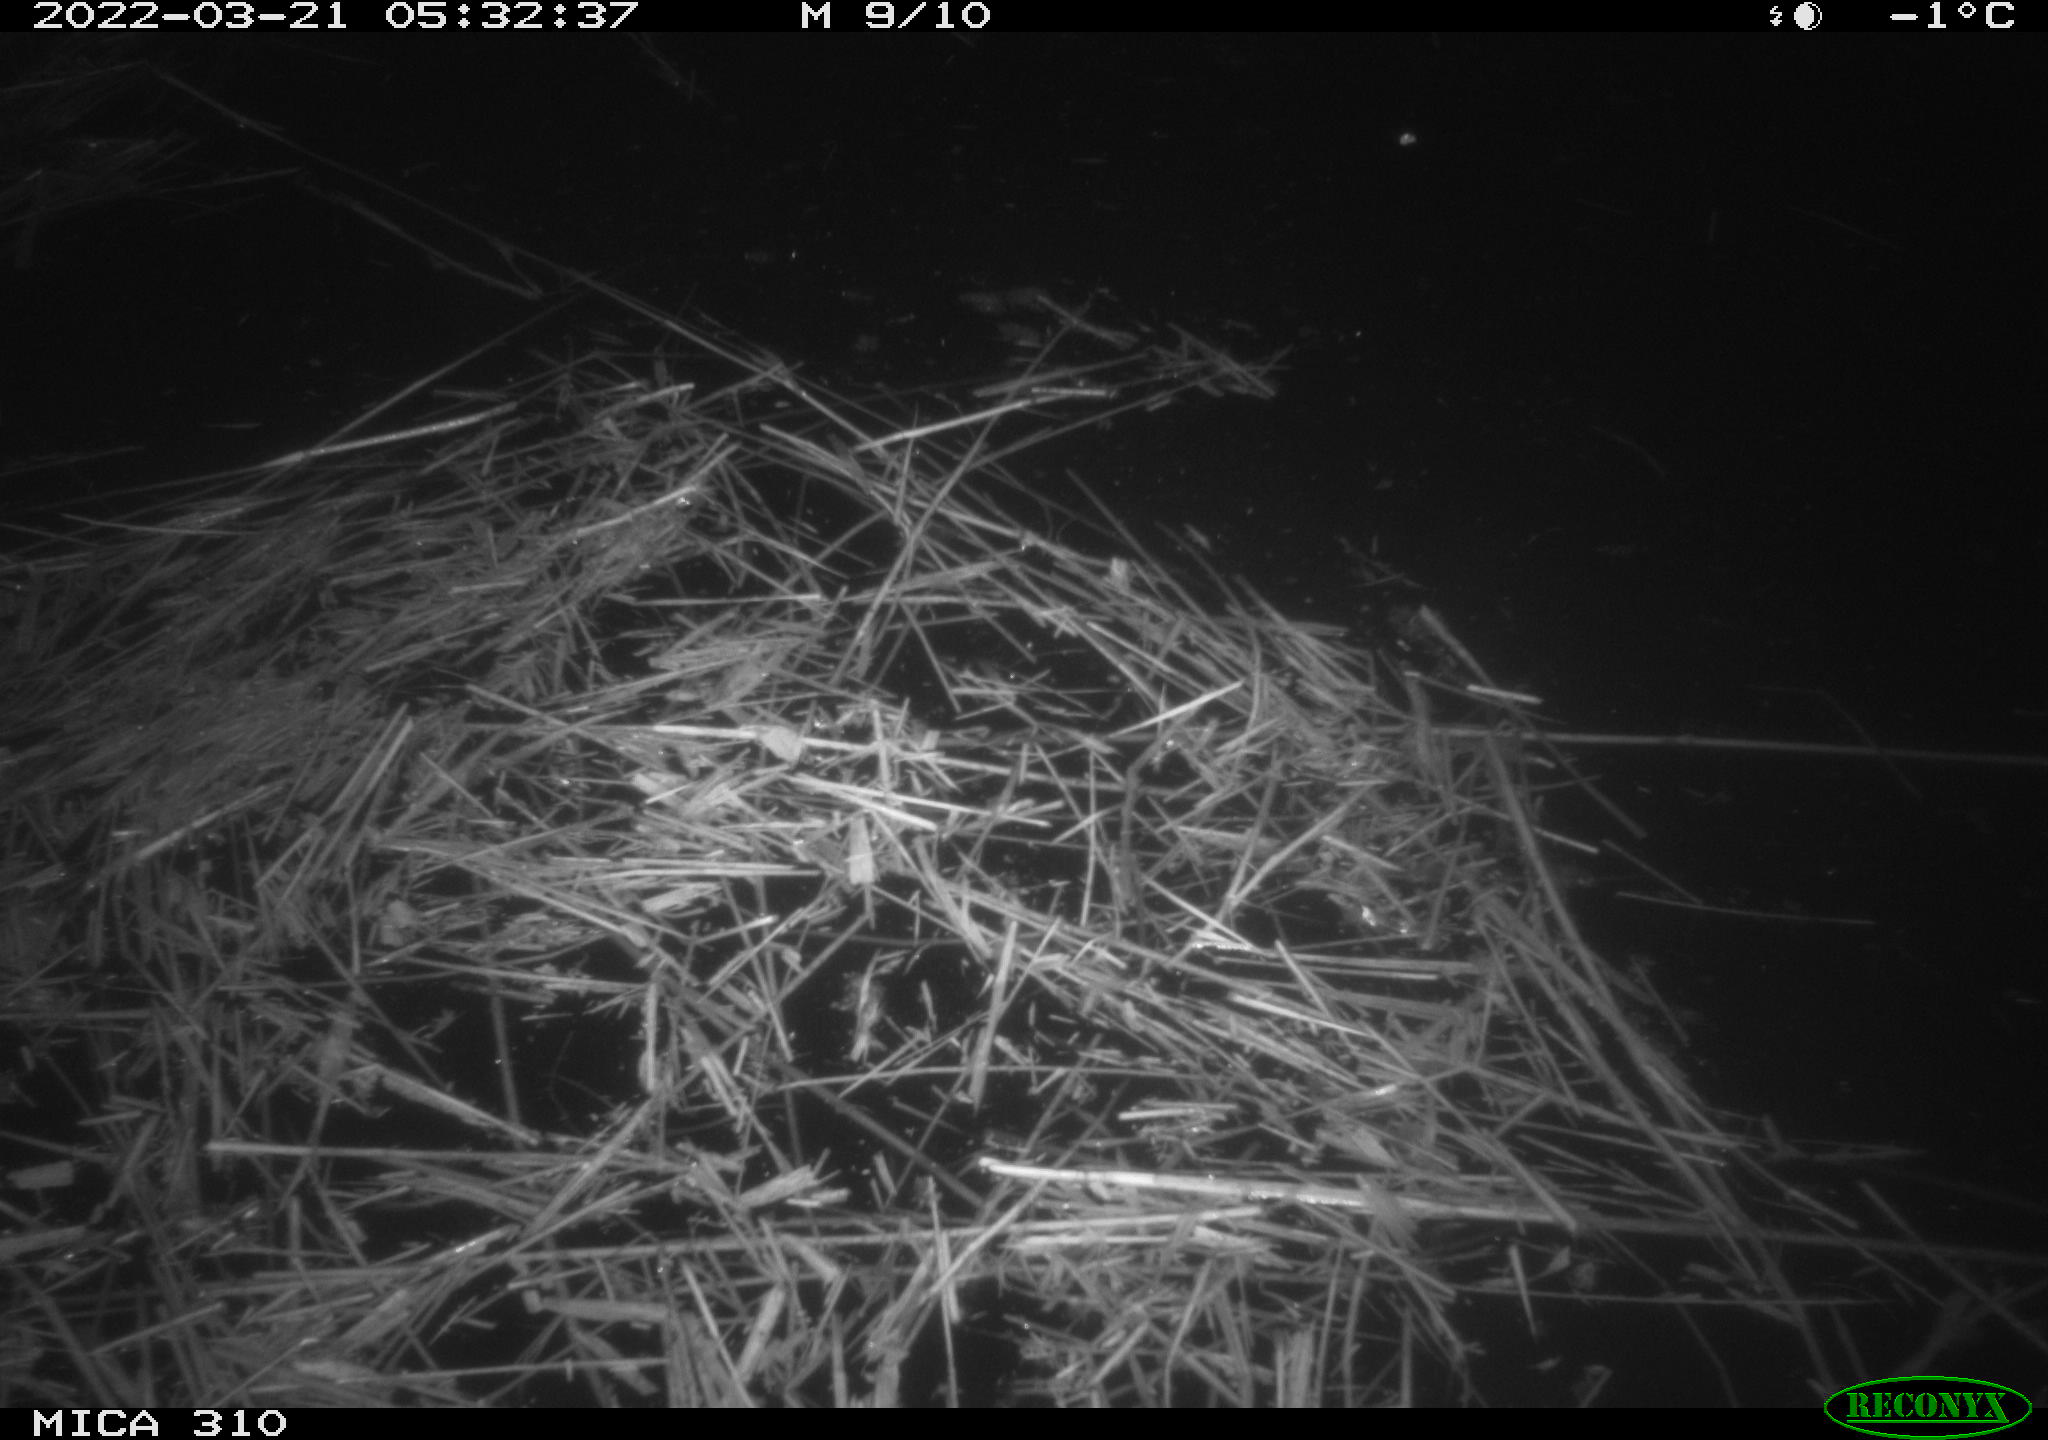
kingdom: Animalia
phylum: Chordata
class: Aves
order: Anseriformes
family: Anatidae
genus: Anas
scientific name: Anas platyrhynchos
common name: Mallard
